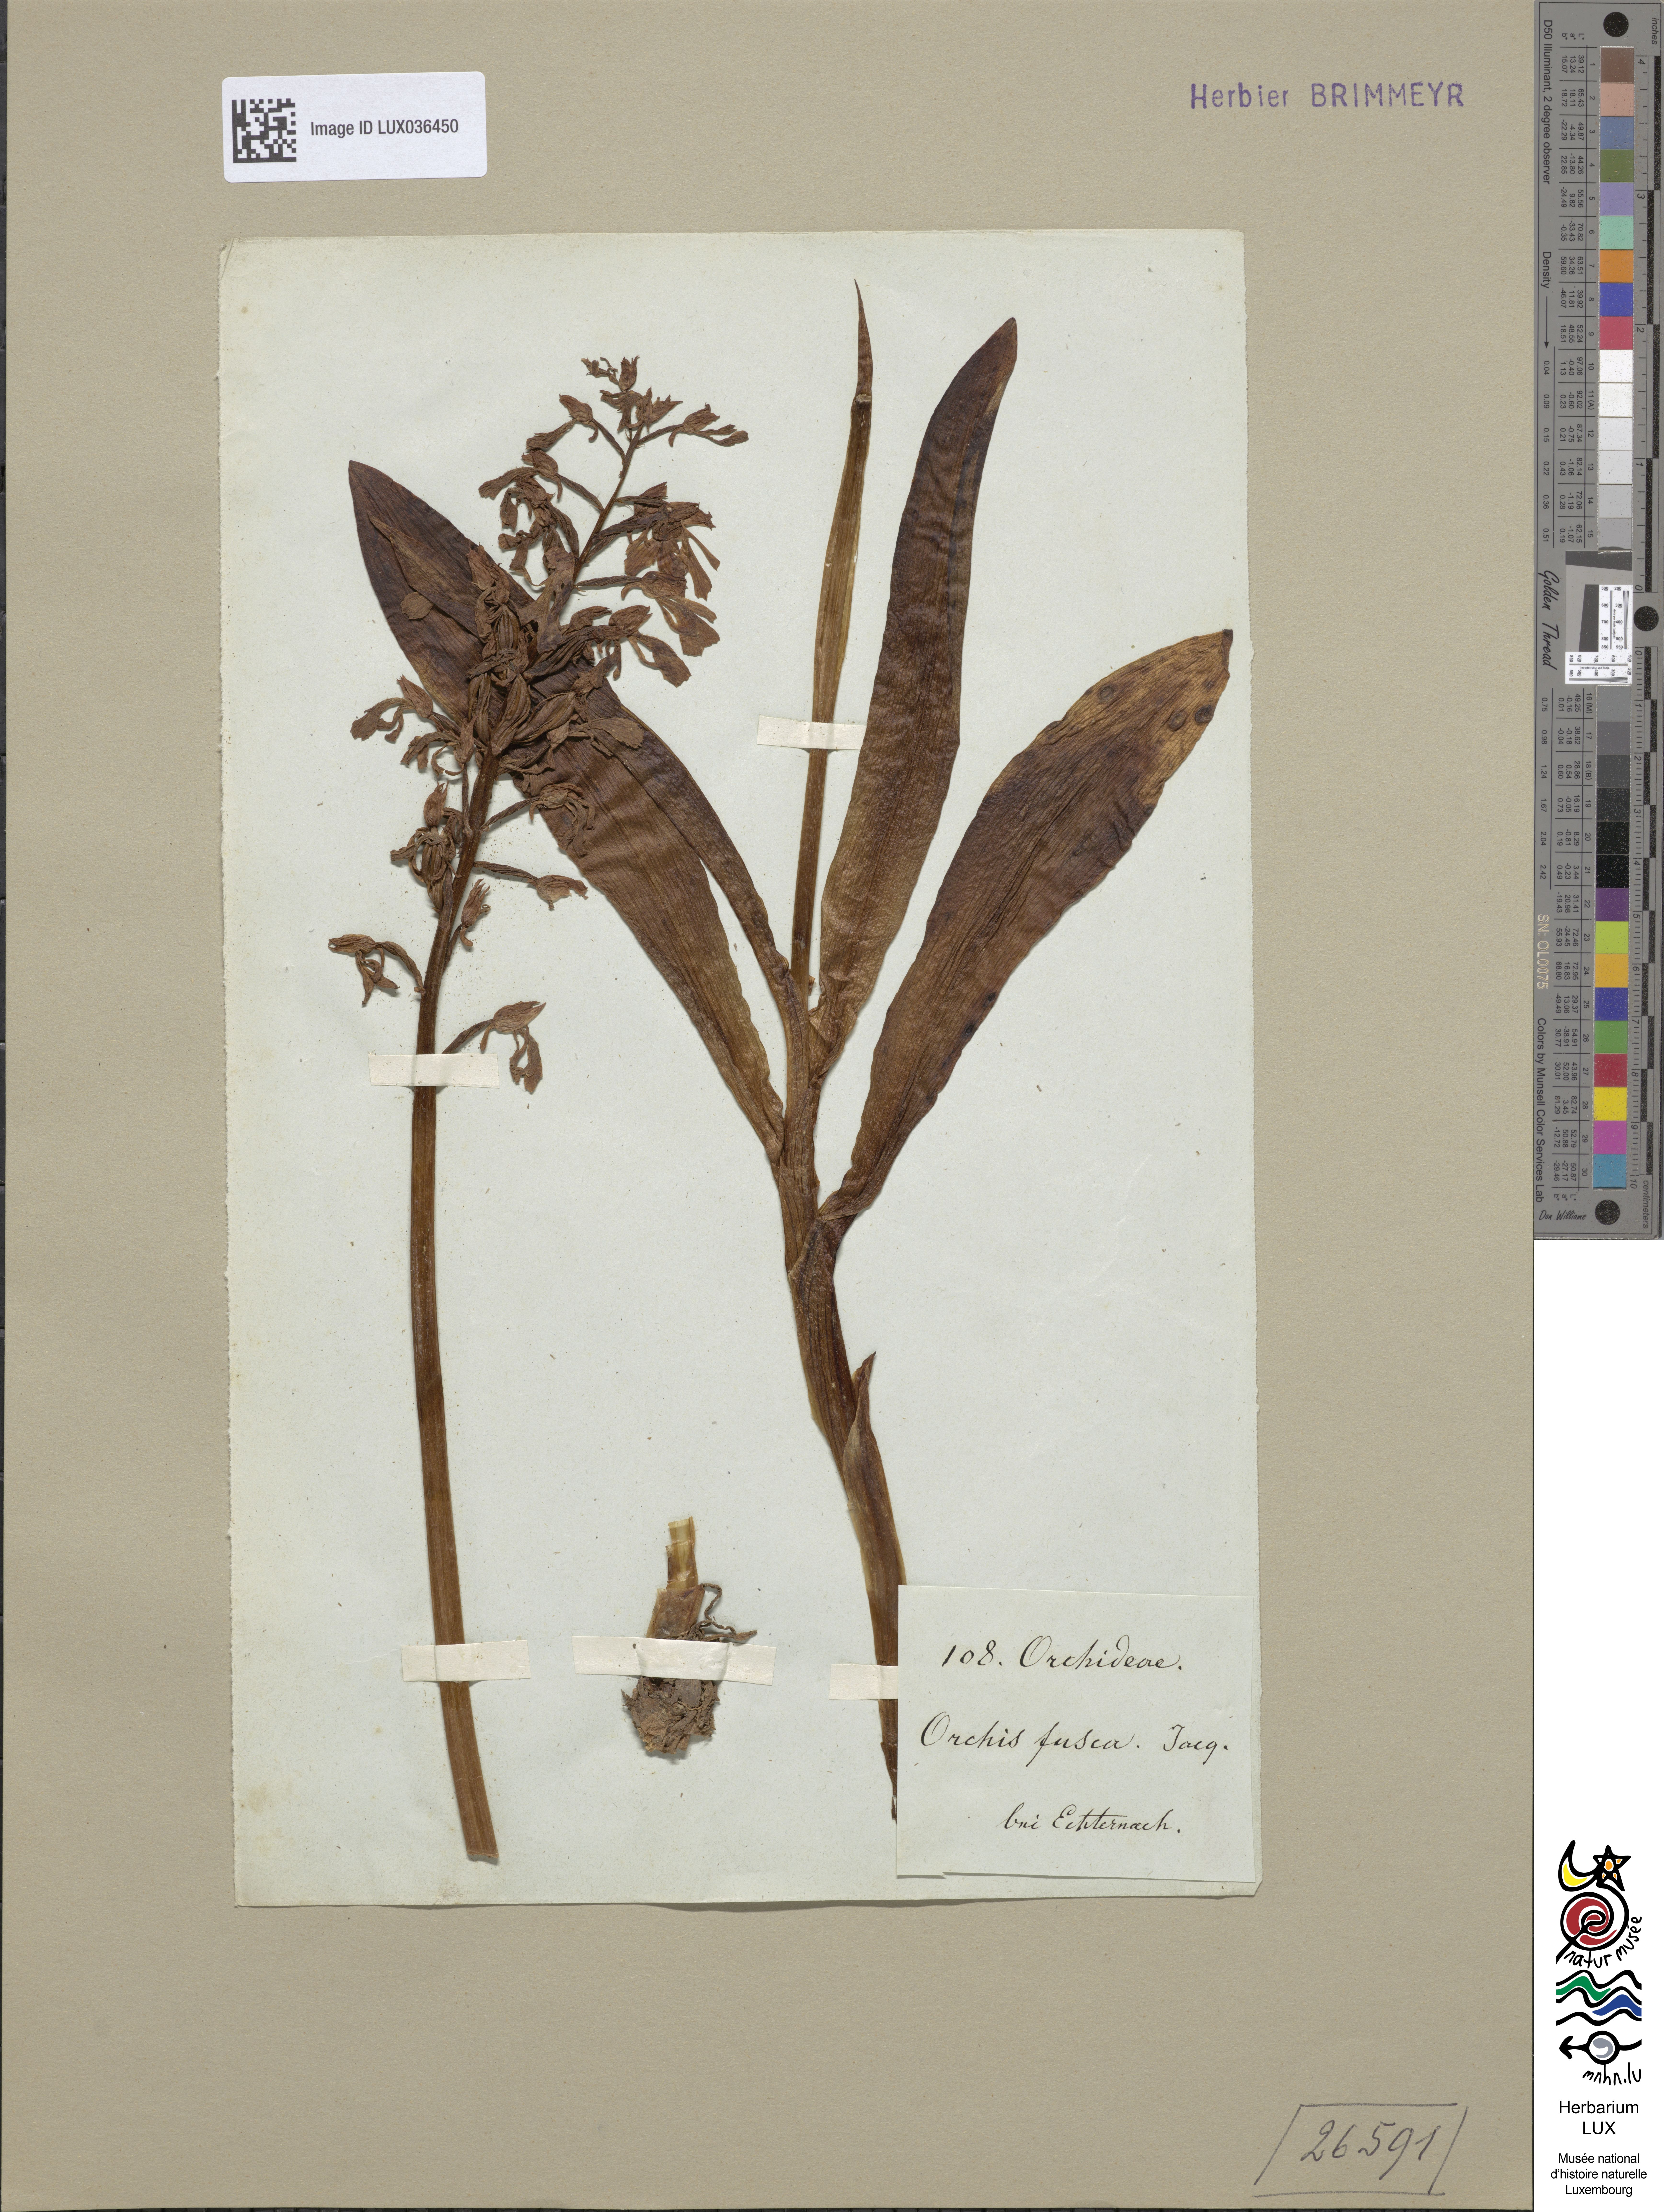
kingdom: Plantae
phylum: Tracheophyta
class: Liliopsida
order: Asparagales
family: Orchidaceae
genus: Orchis
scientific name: Orchis purpurea
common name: Lady orchid
